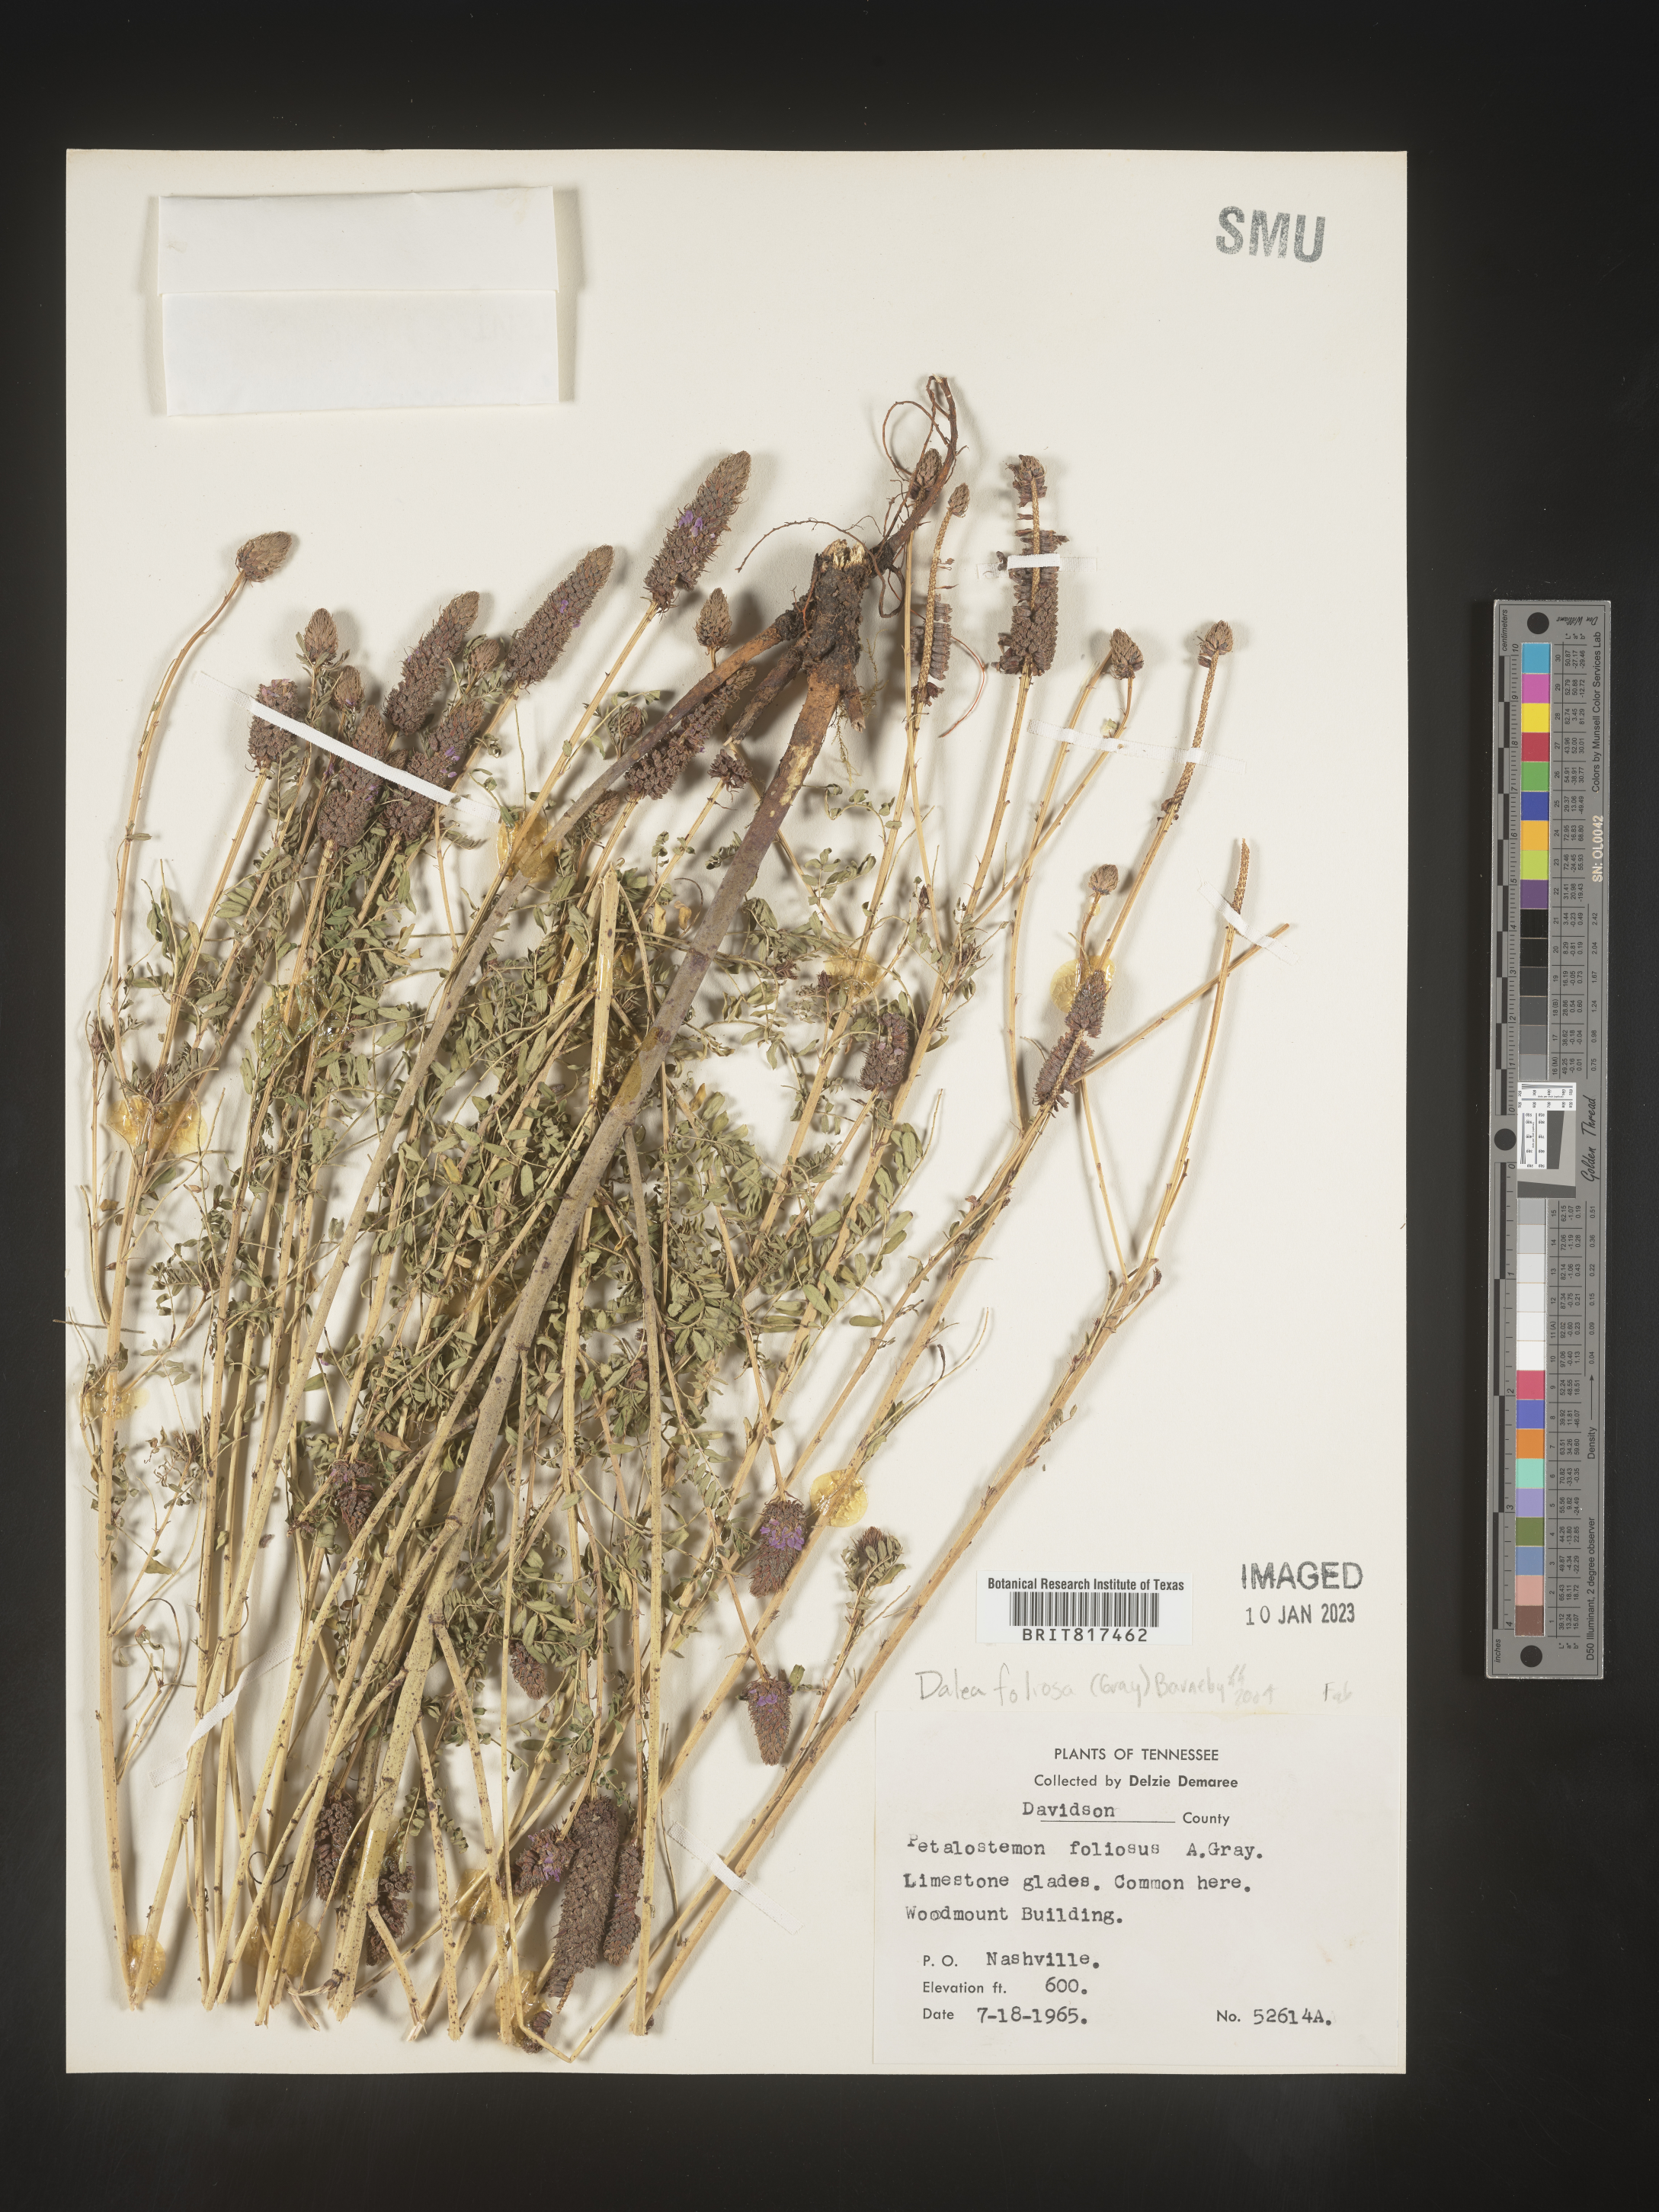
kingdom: Plantae
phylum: Tracheophyta
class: Magnoliopsida
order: Fabales
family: Fabaceae
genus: Dalea
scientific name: Dalea
